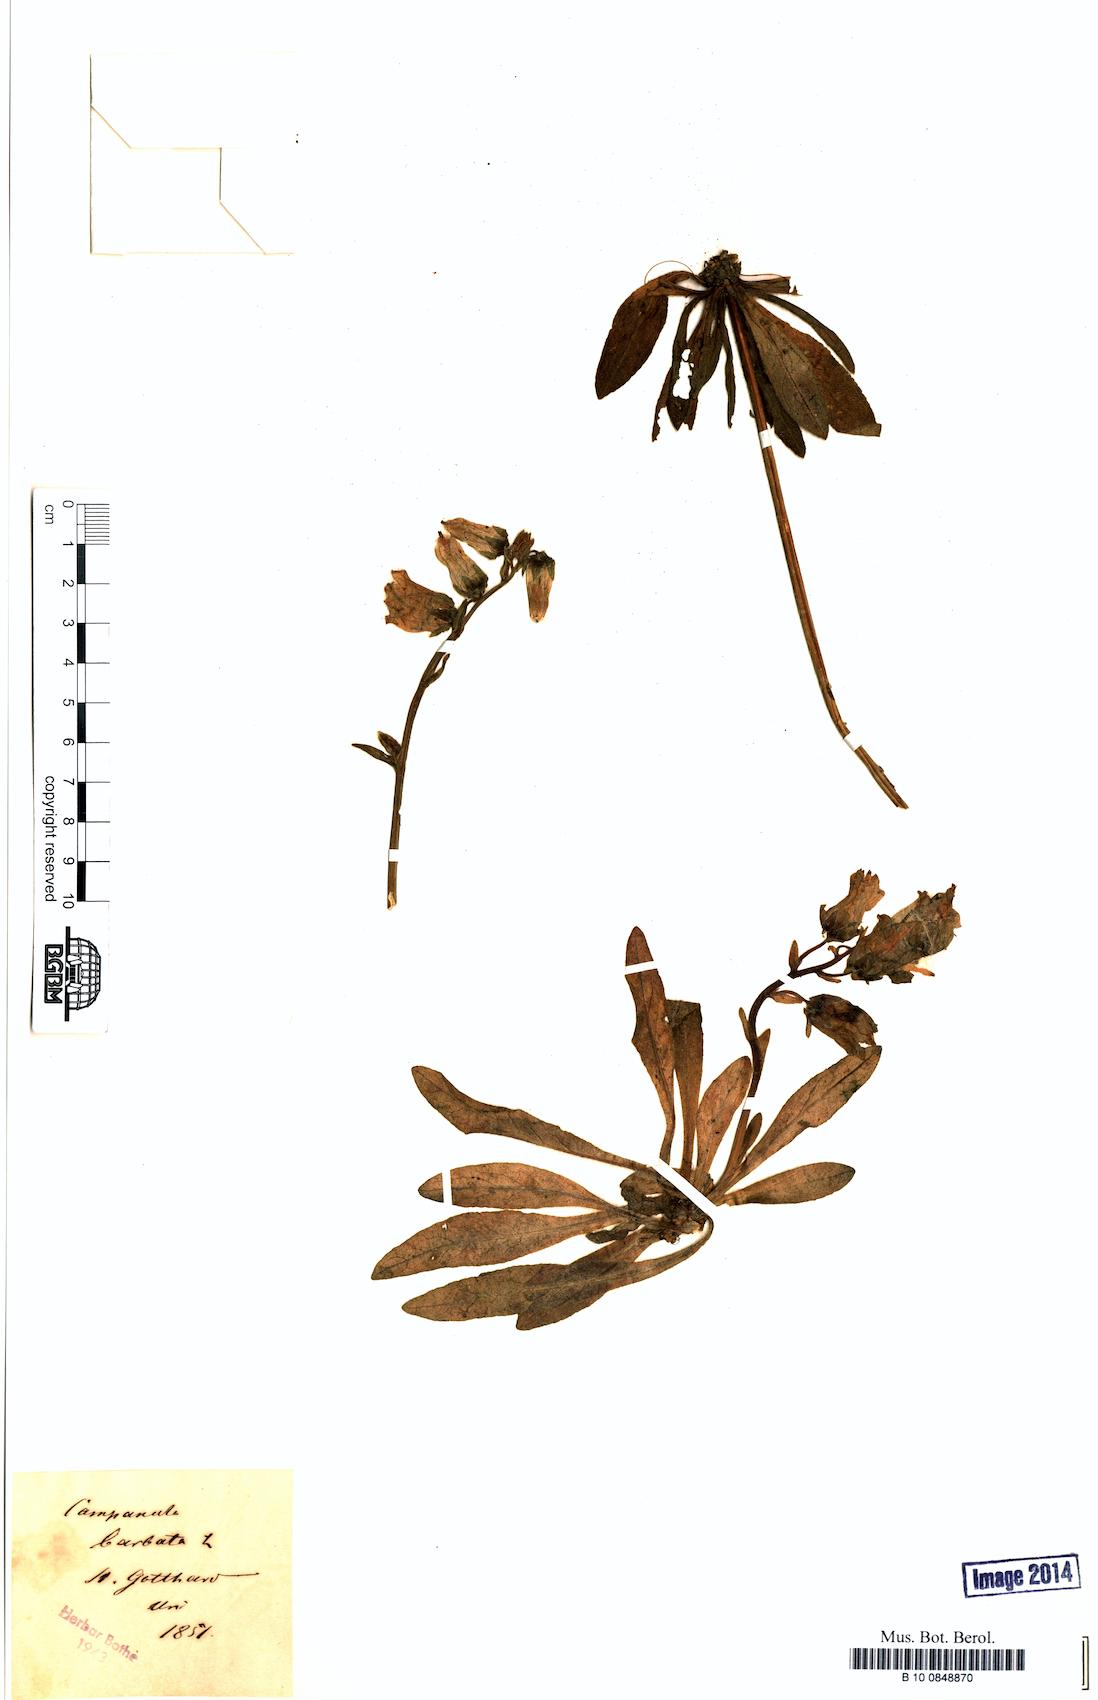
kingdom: Plantae
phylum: Tracheophyta
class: Magnoliopsida
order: Asterales
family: Campanulaceae
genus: Campanula
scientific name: Campanula barbata
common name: Bearded bellflower
